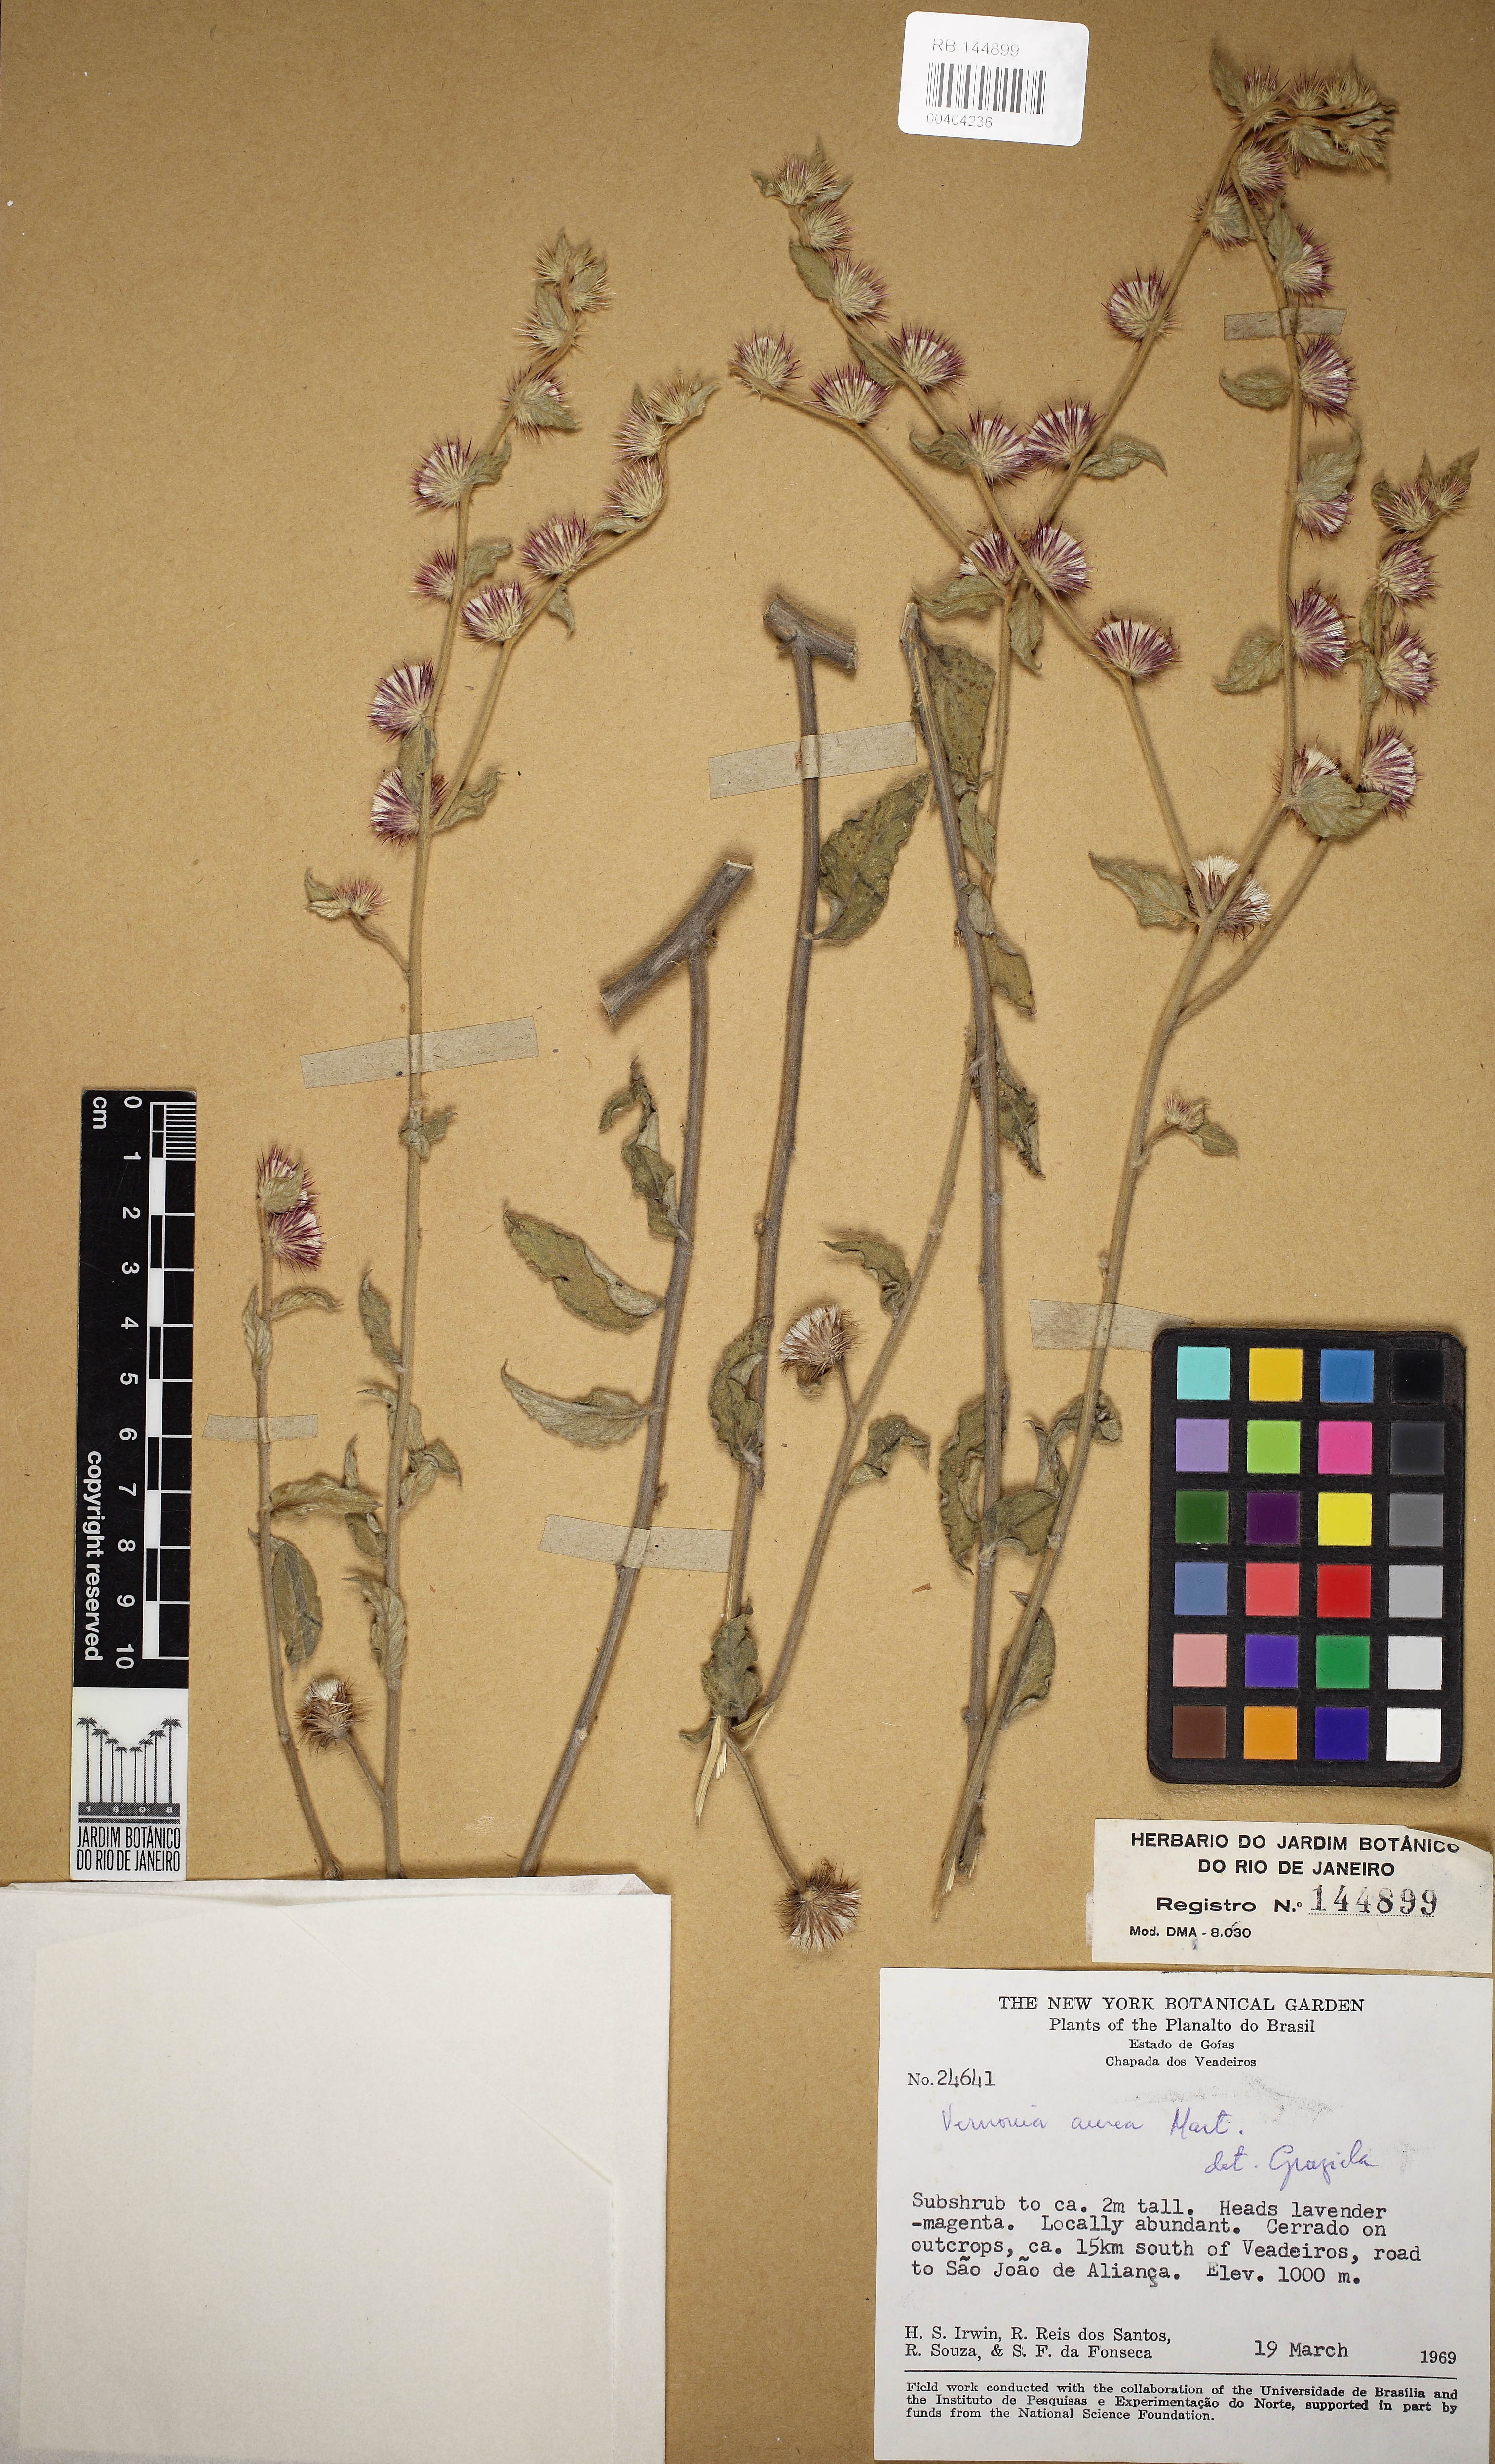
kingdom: Plantae
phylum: Tracheophyta
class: Magnoliopsida
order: Asterales
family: Asteraceae
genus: Lepidaploa
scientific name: Lepidaploa aurea
